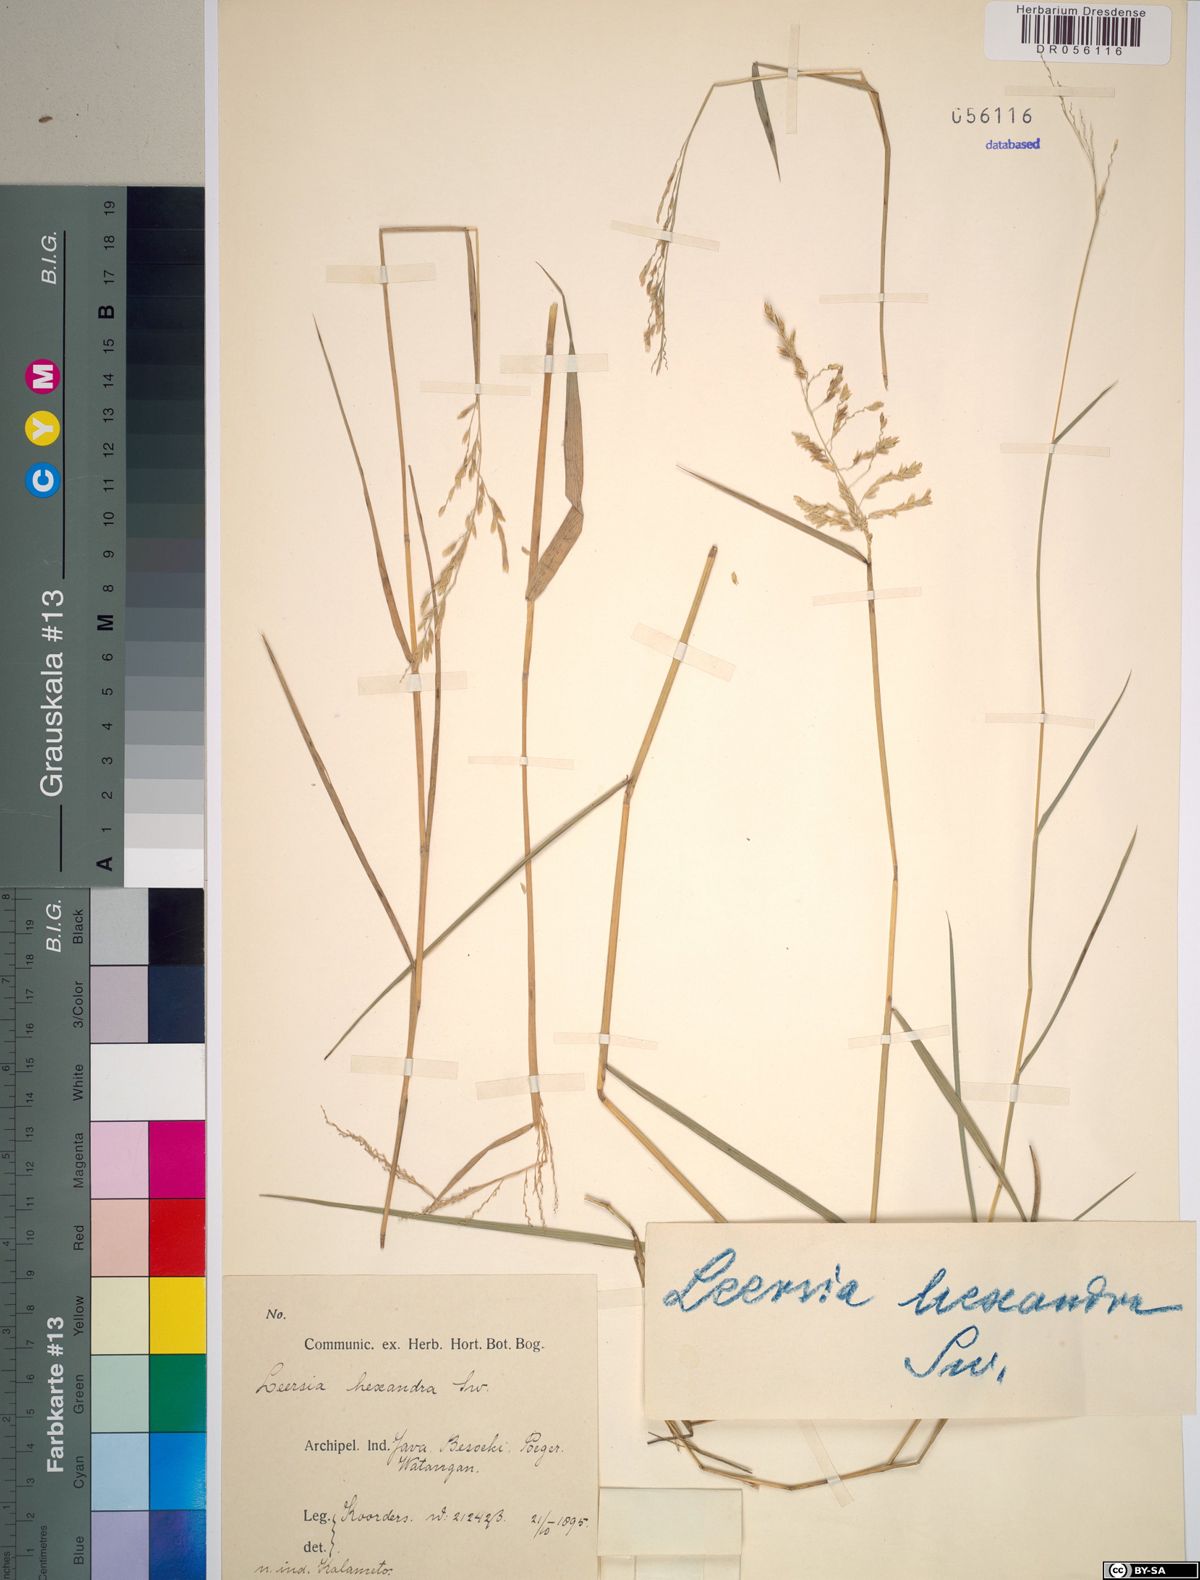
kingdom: Plantae
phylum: Tracheophyta
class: Liliopsida
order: Poales
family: Poaceae
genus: Leersia
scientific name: Leersia hexandra
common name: Southern cut grass
